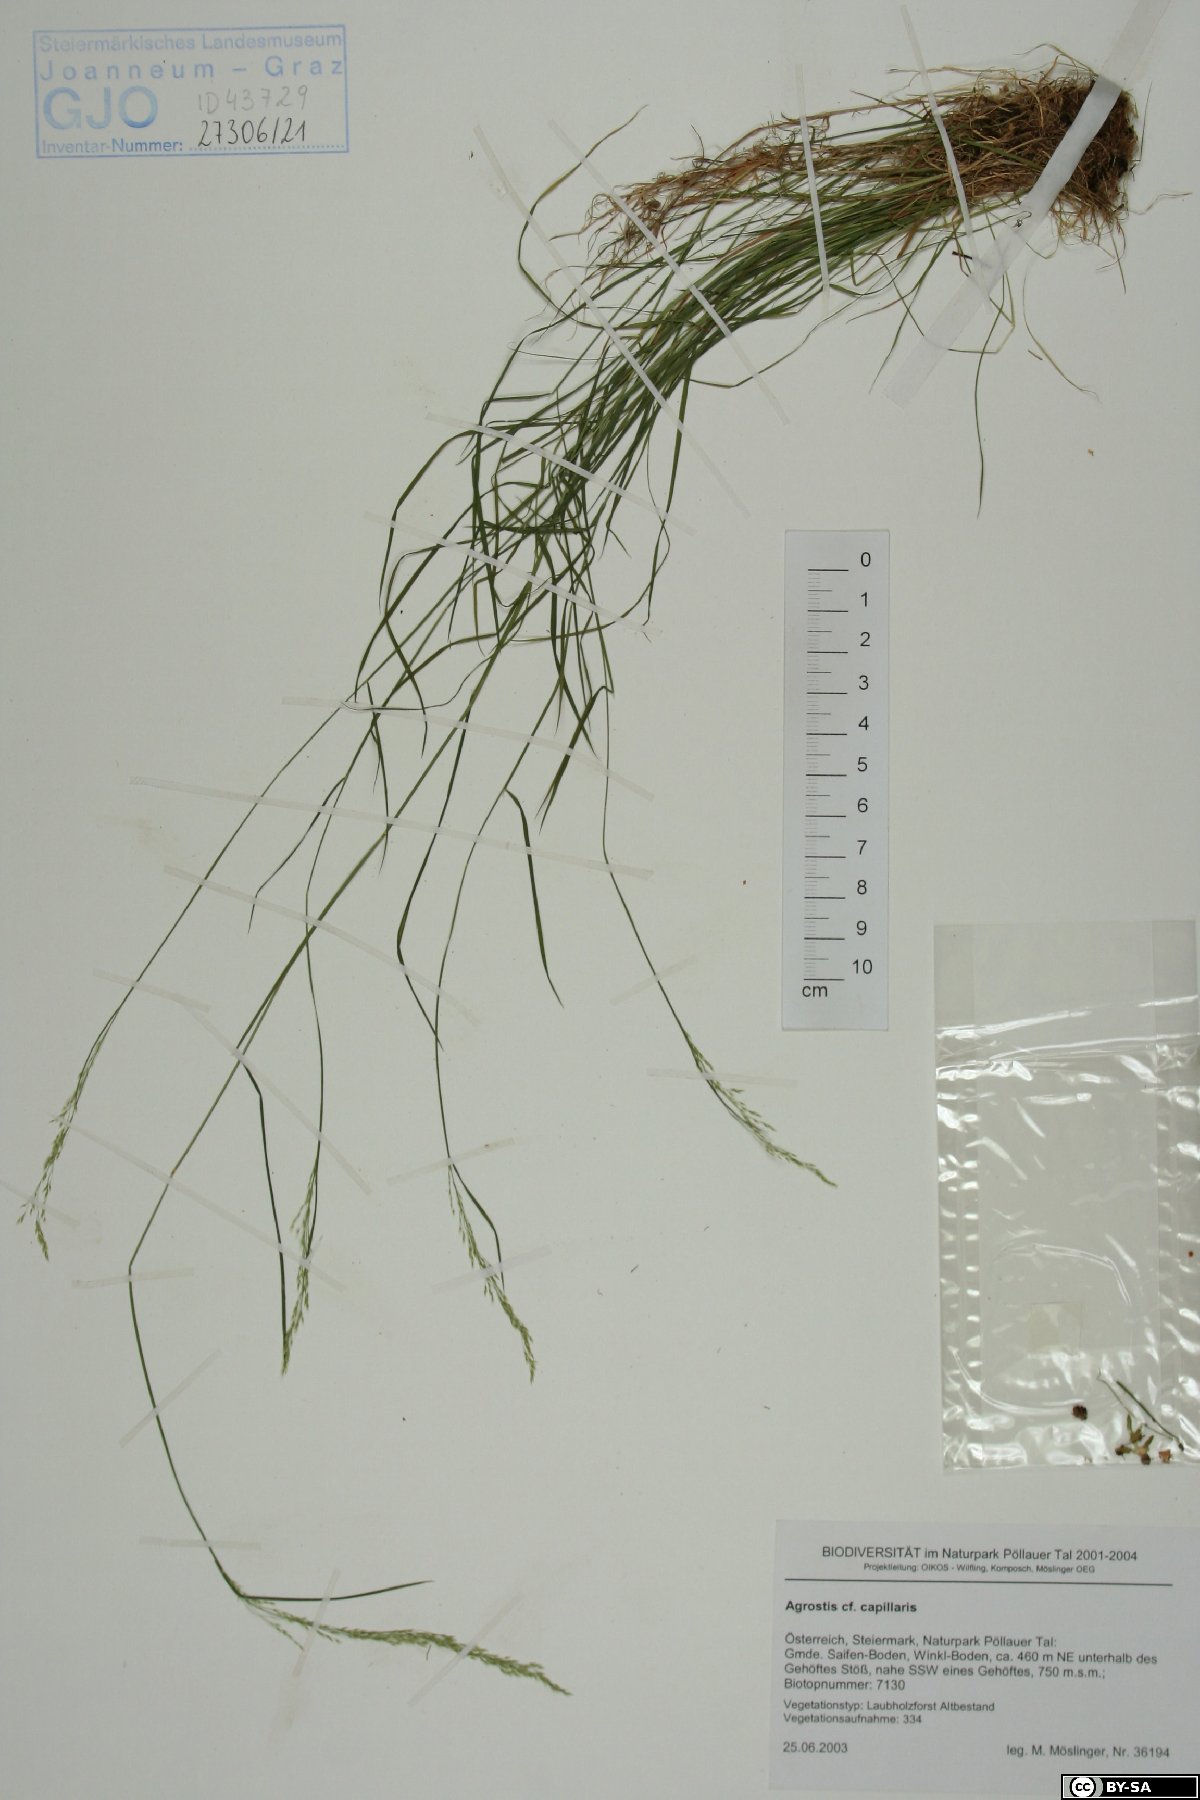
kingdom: Plantae
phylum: Tracheophyta
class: Liliopsida
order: Poales
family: Poaceae
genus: Agrostis
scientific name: Agrostis capillaris
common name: Colonial bentgrass
